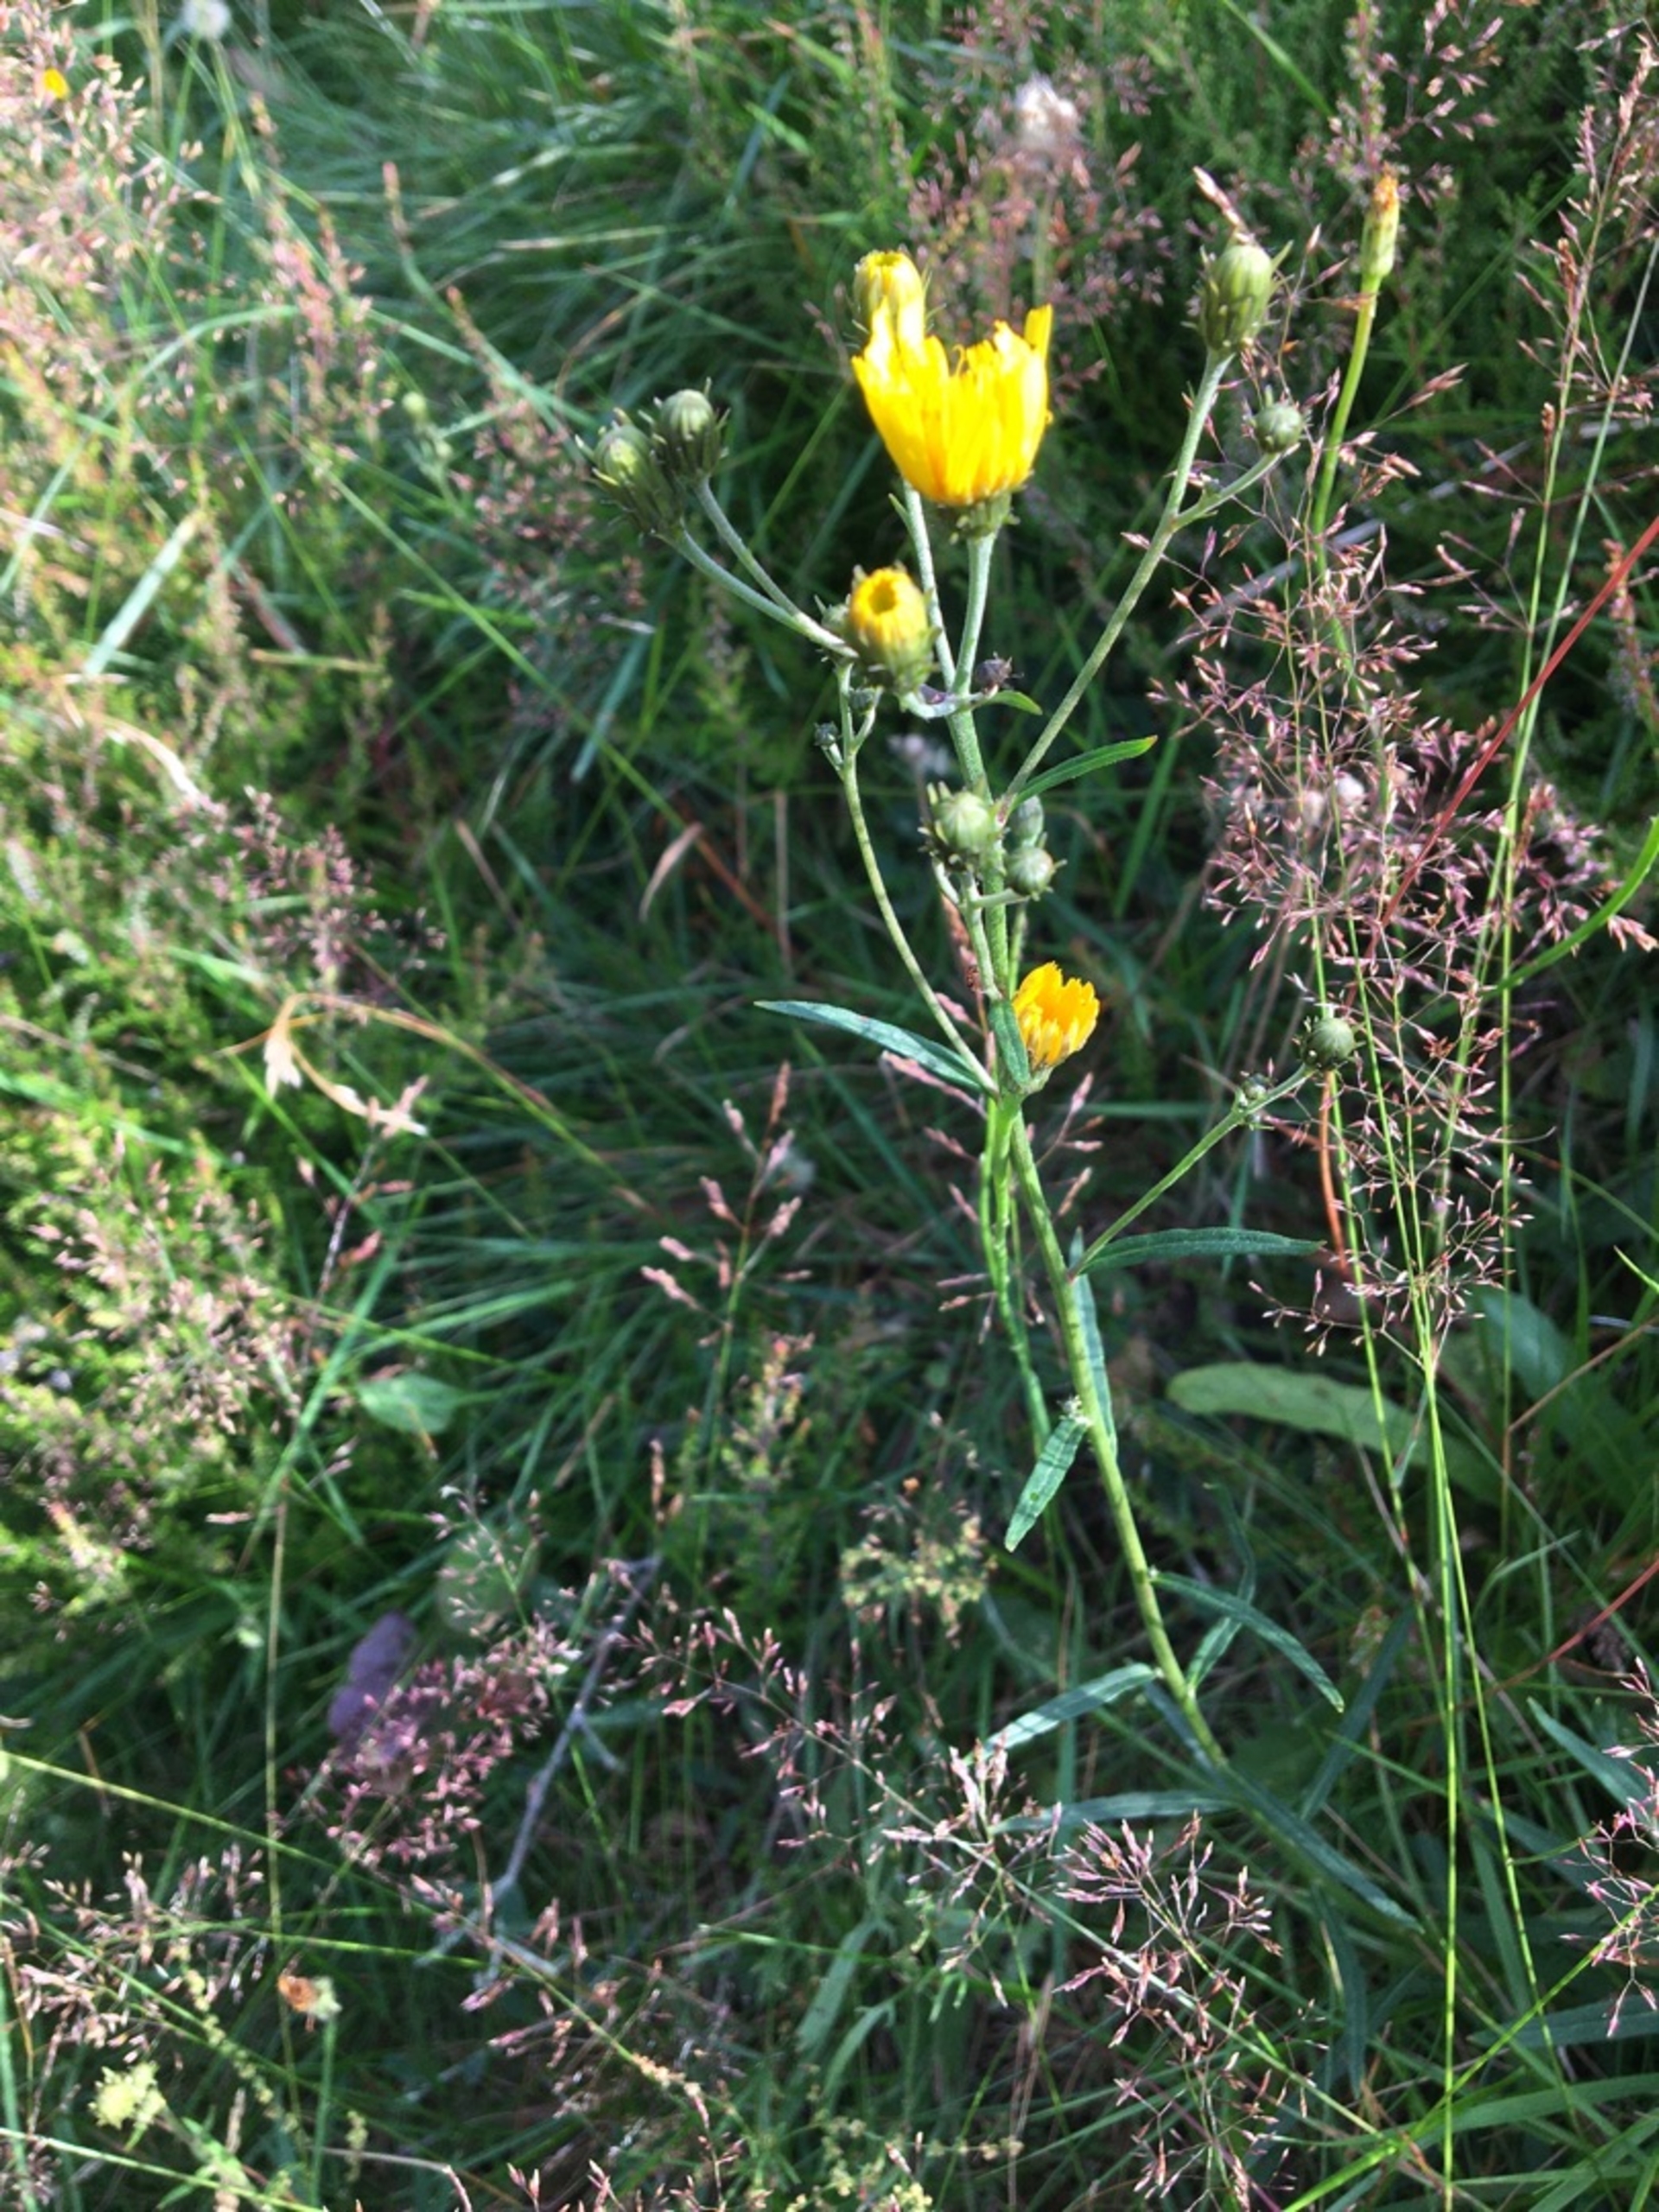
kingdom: Plantae
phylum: Tracheophyta
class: Magnoliopsida
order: Asterales
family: Asteraceae
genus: Hieracium
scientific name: Hieracium umbellatum
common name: Smalbladet høgeurt
